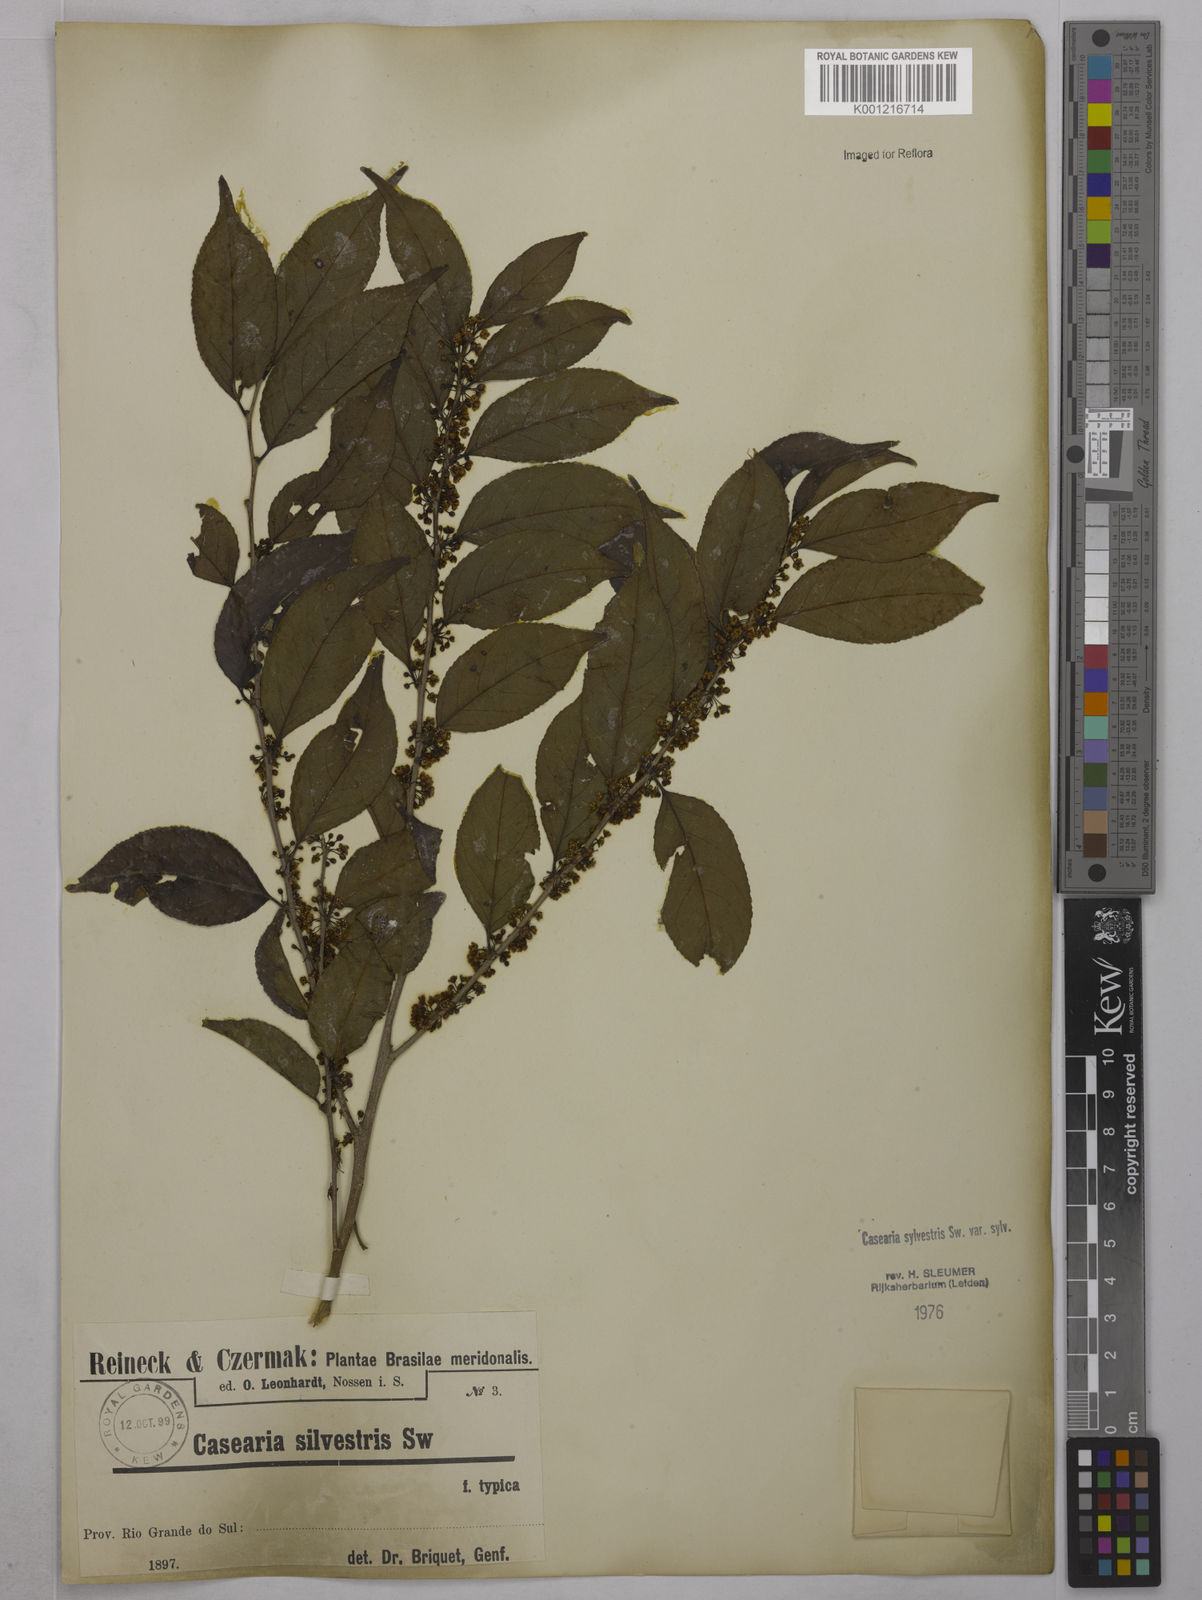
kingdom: Plantae
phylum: Tracheophyta
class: Magnoliopsida
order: Malpighiales
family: Salicaceae
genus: Casearia
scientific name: Casearia sylvestris
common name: Wild sage
